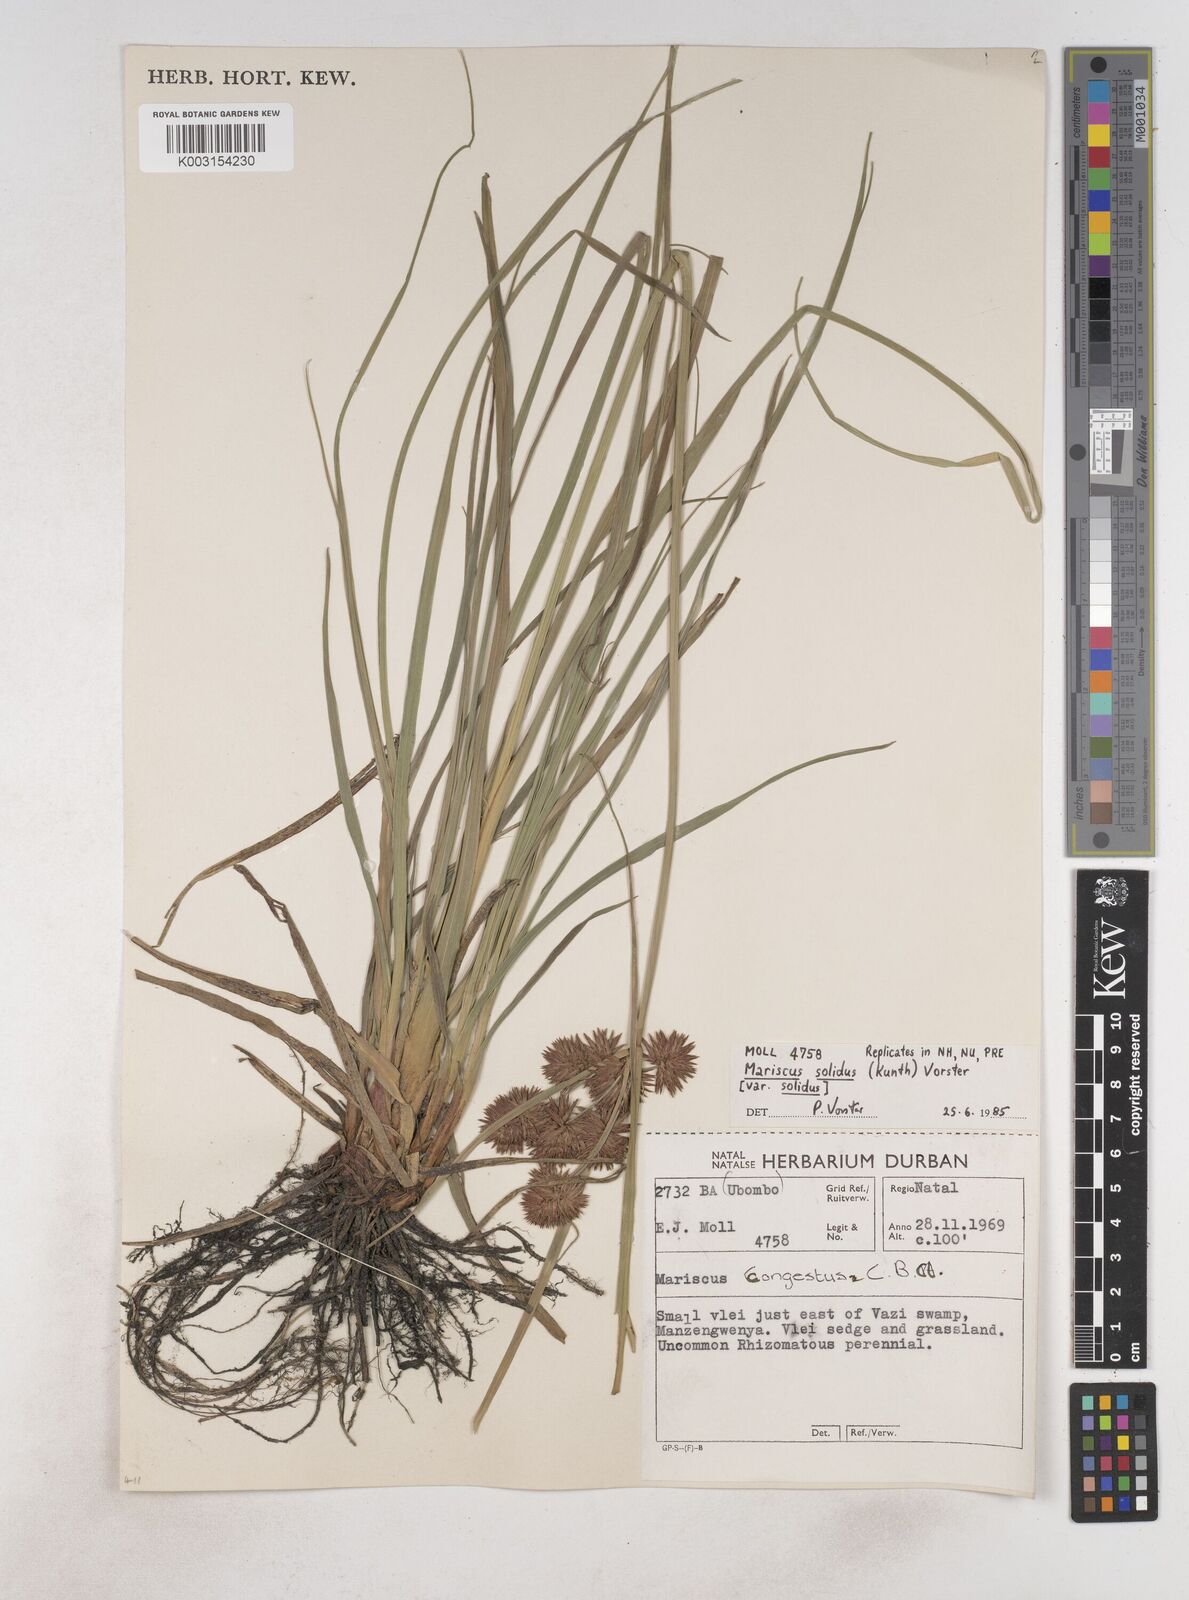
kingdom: Plantae
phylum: Tracheophyta
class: Liliopsida
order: Poales
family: Cyperaceae
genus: Cyperus
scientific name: Cyperus congestus
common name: Dense flat sedge
